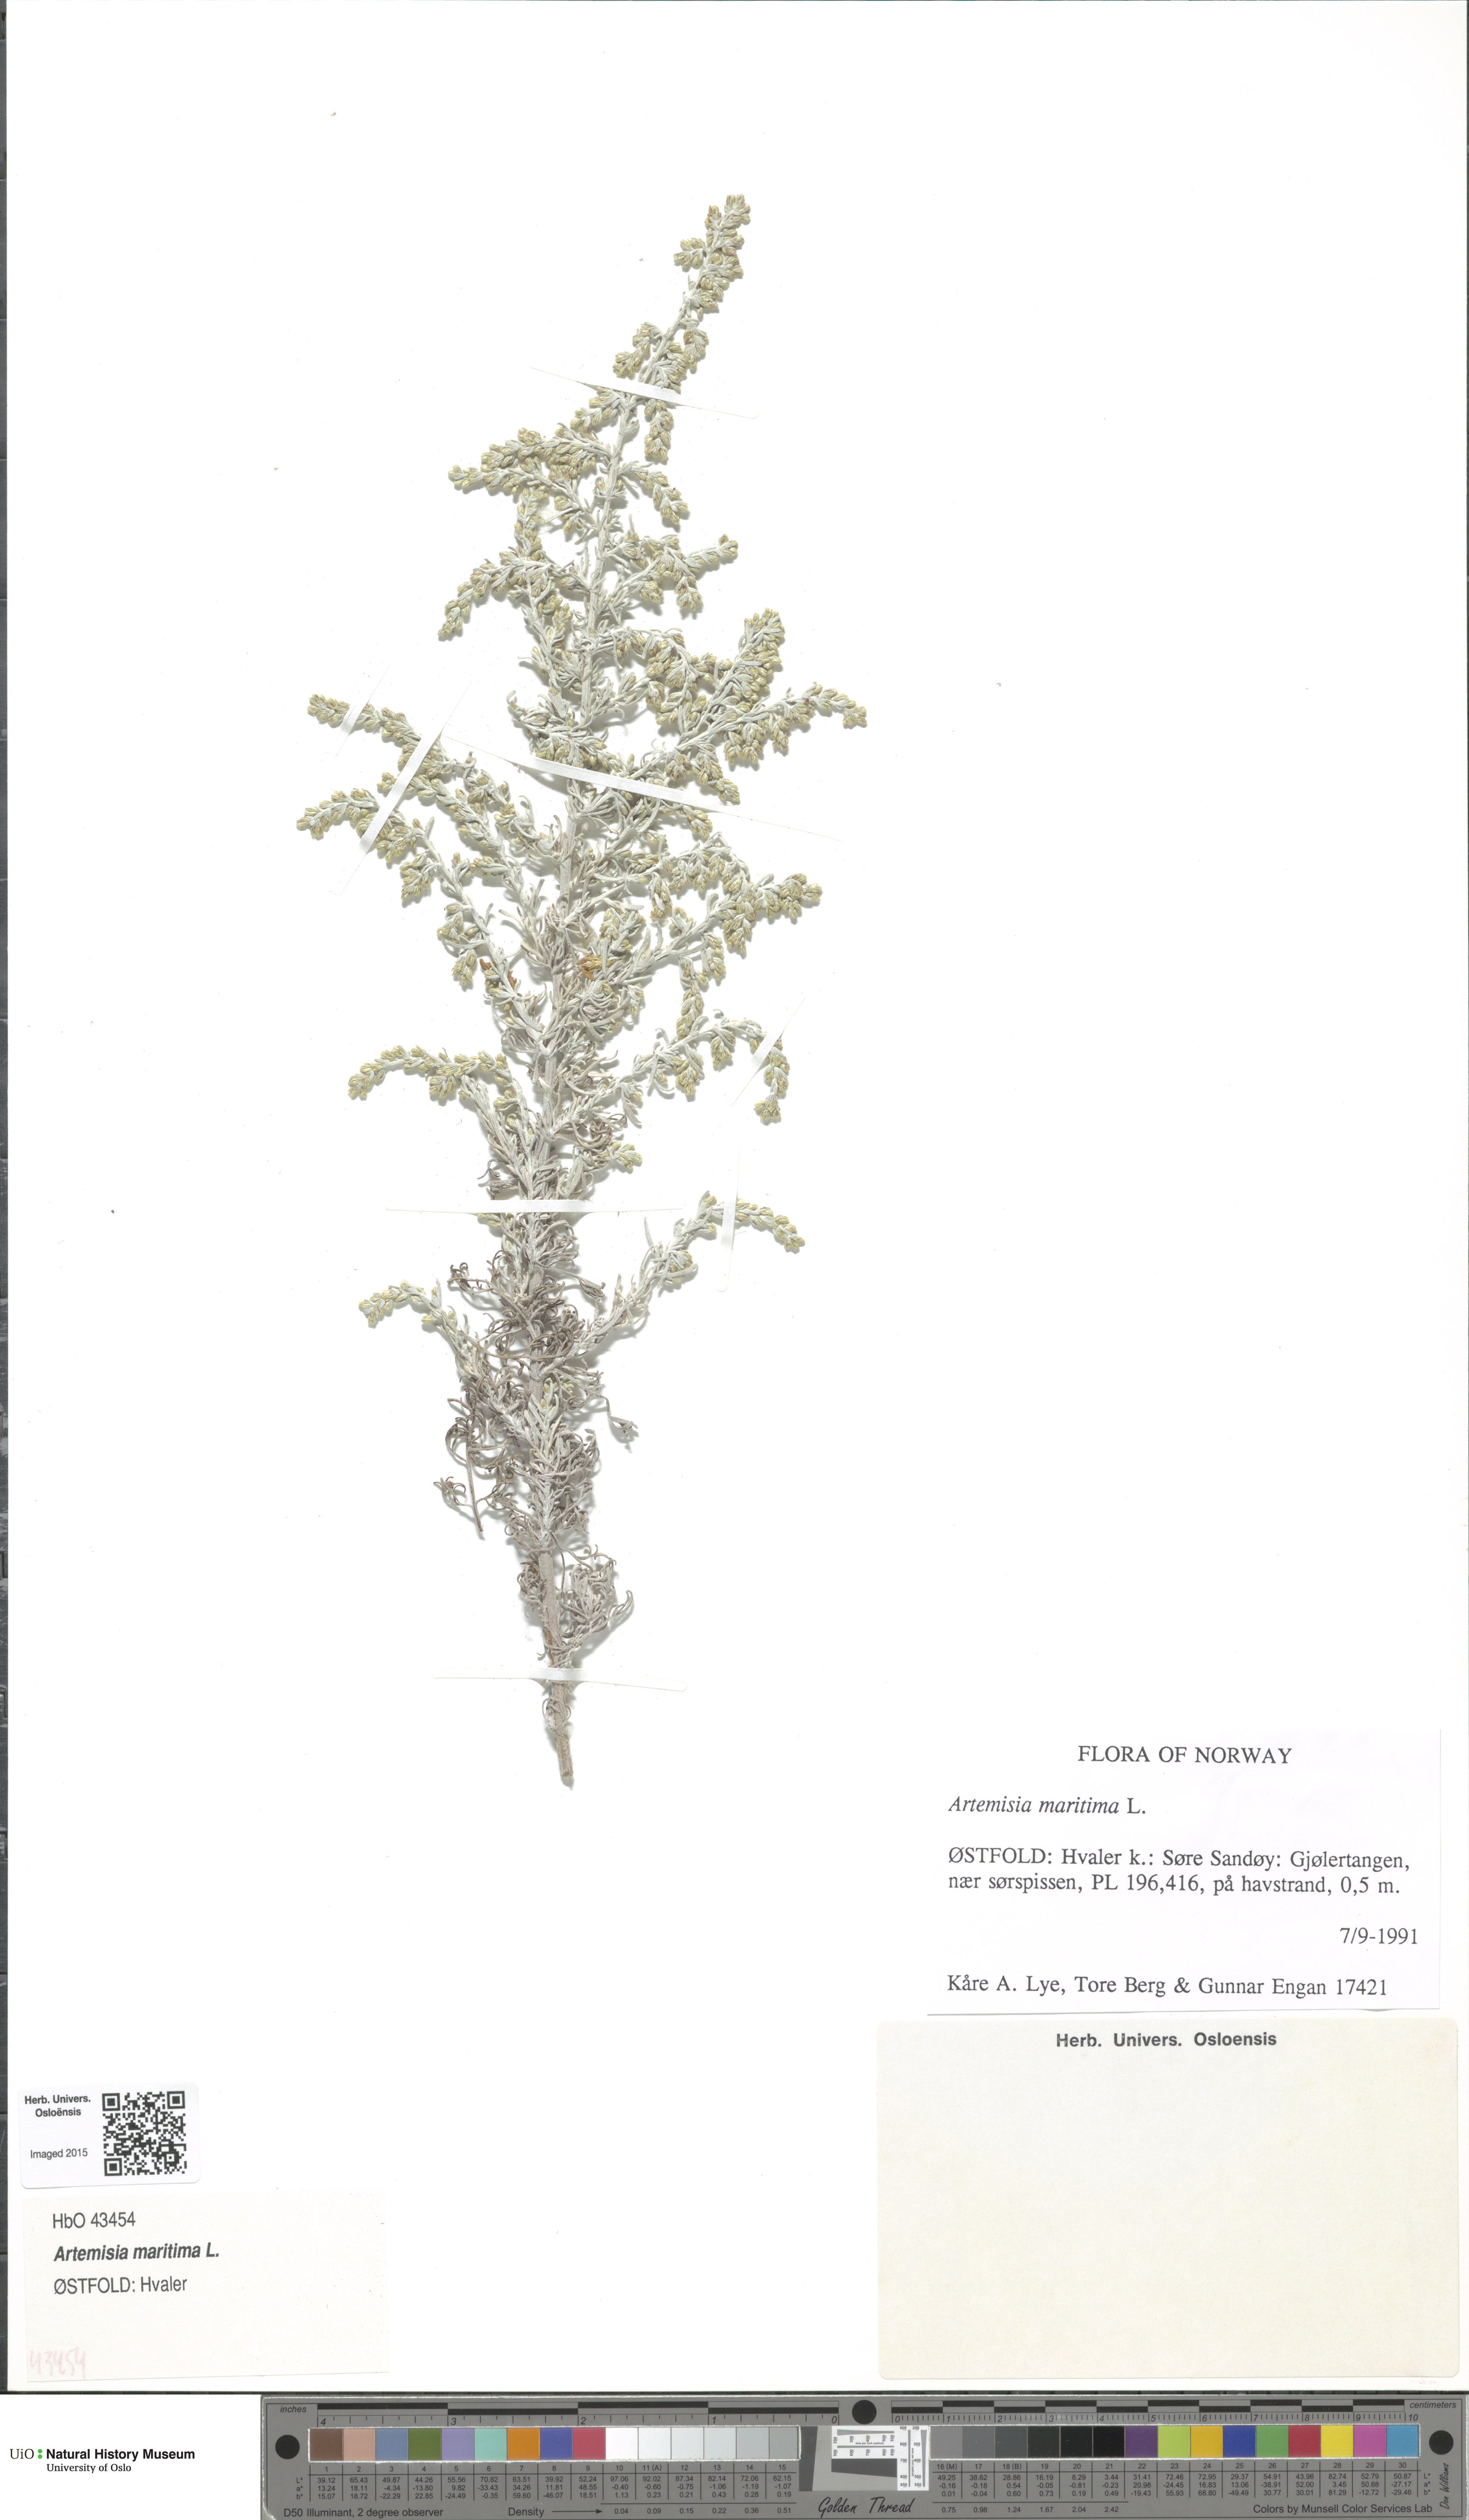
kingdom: Plantae
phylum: Tracheophyta
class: Magnoliopsida
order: Asterales
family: Asteraceae
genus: Artemisia
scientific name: Artemisia maritima
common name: Wormseed
